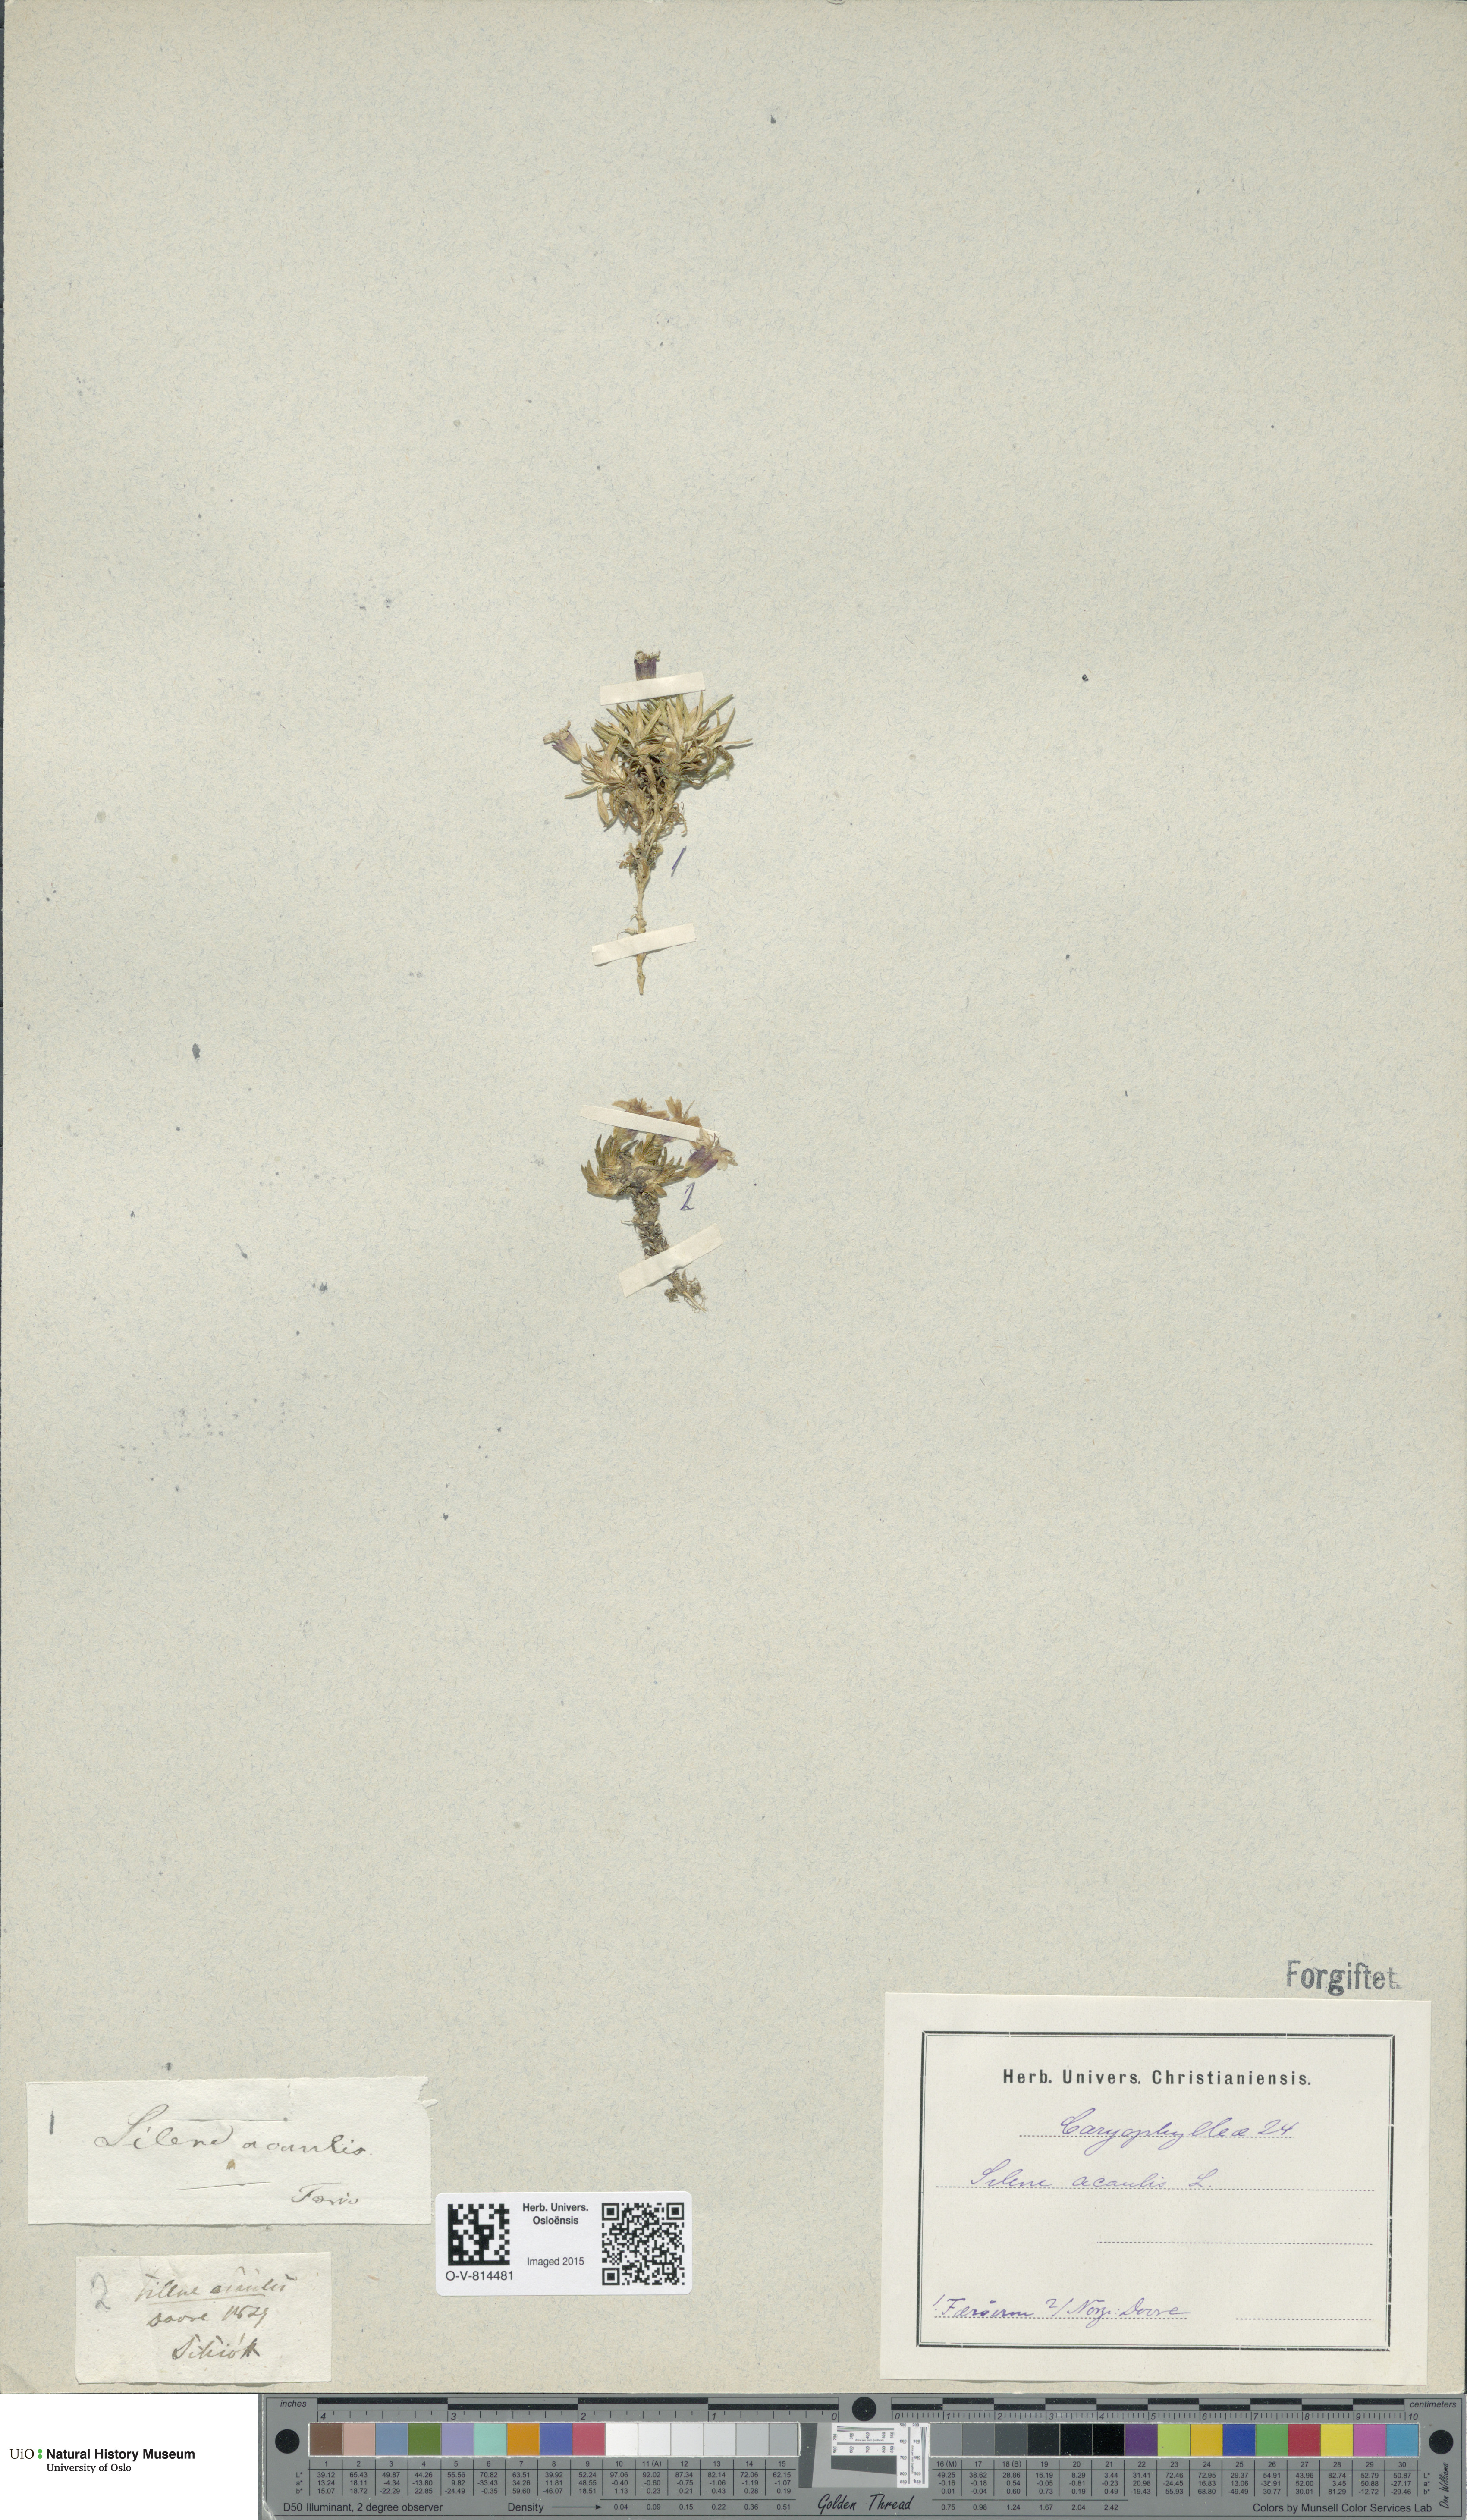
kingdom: Plantae
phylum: Tracheophyta
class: Magnoliopsida
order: Caryophyllales
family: Caryophyllaceae
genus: Silene
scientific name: Silene acaulis
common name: Moss campion
